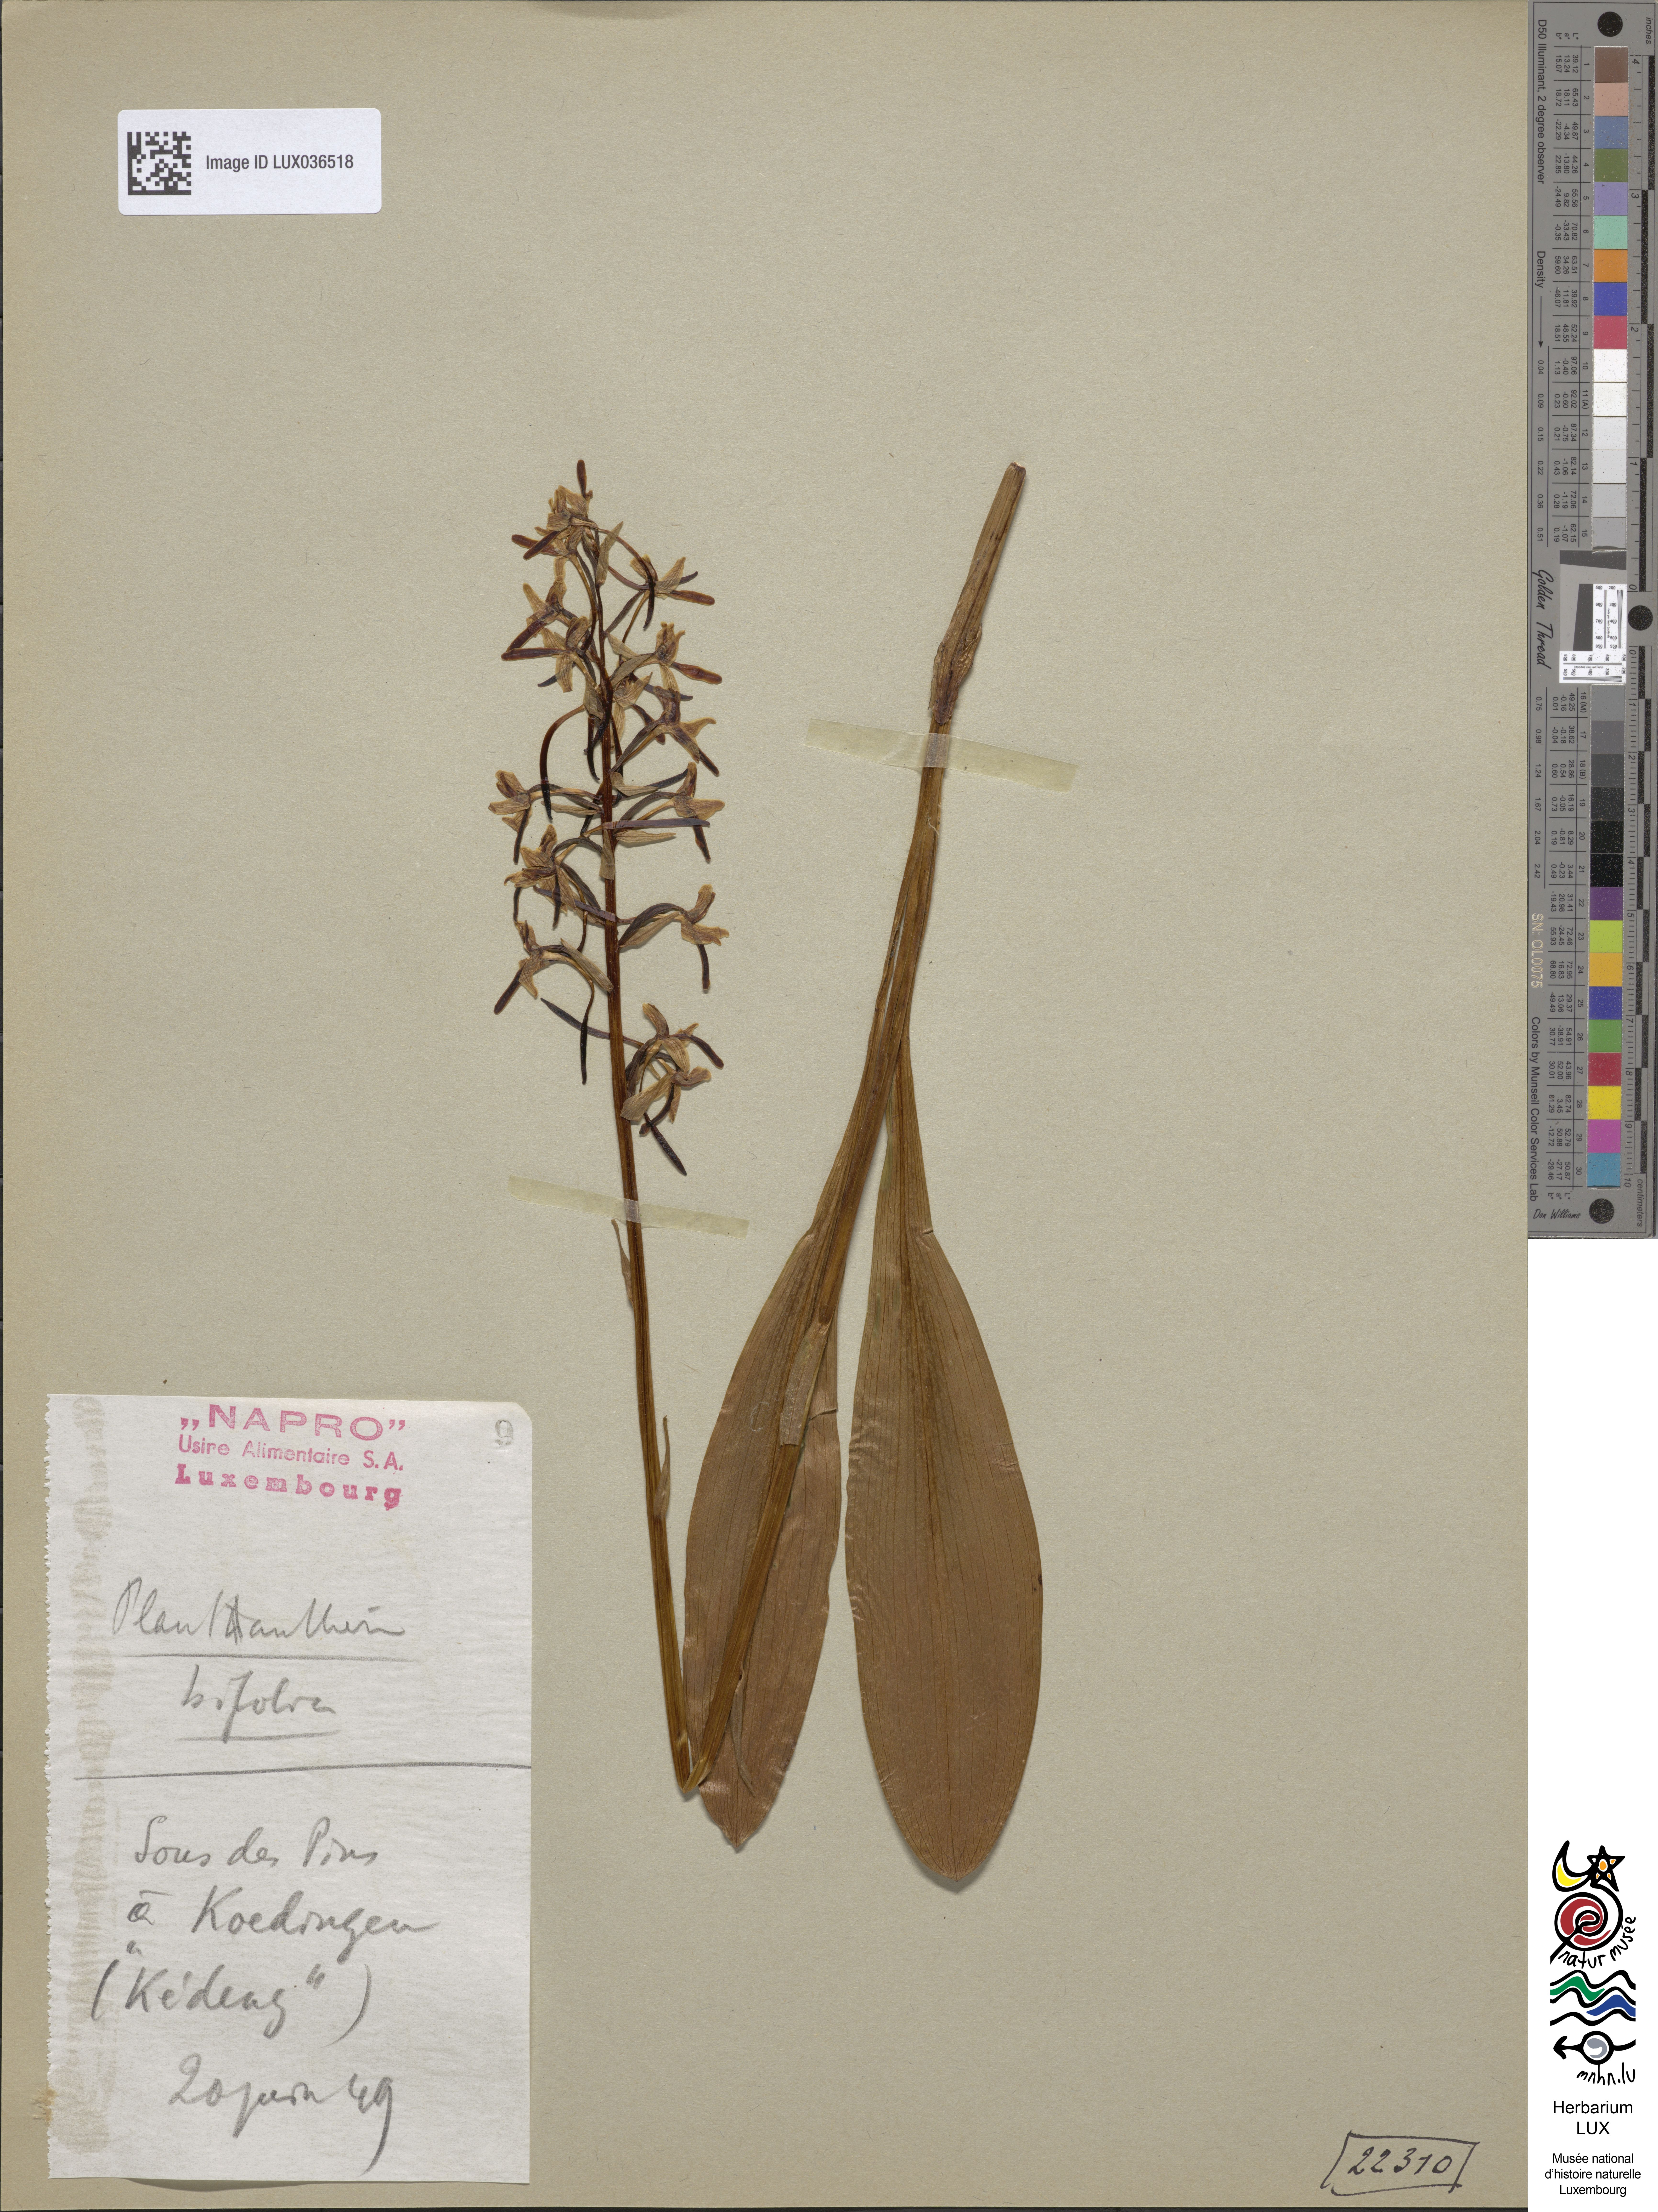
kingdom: Plantae
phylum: Tracheophyta
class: Liliopsida
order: Asparagales
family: Orchidaceae
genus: Platanthera
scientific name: Platanthera bifolia
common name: Lesser butterfly-orchid
